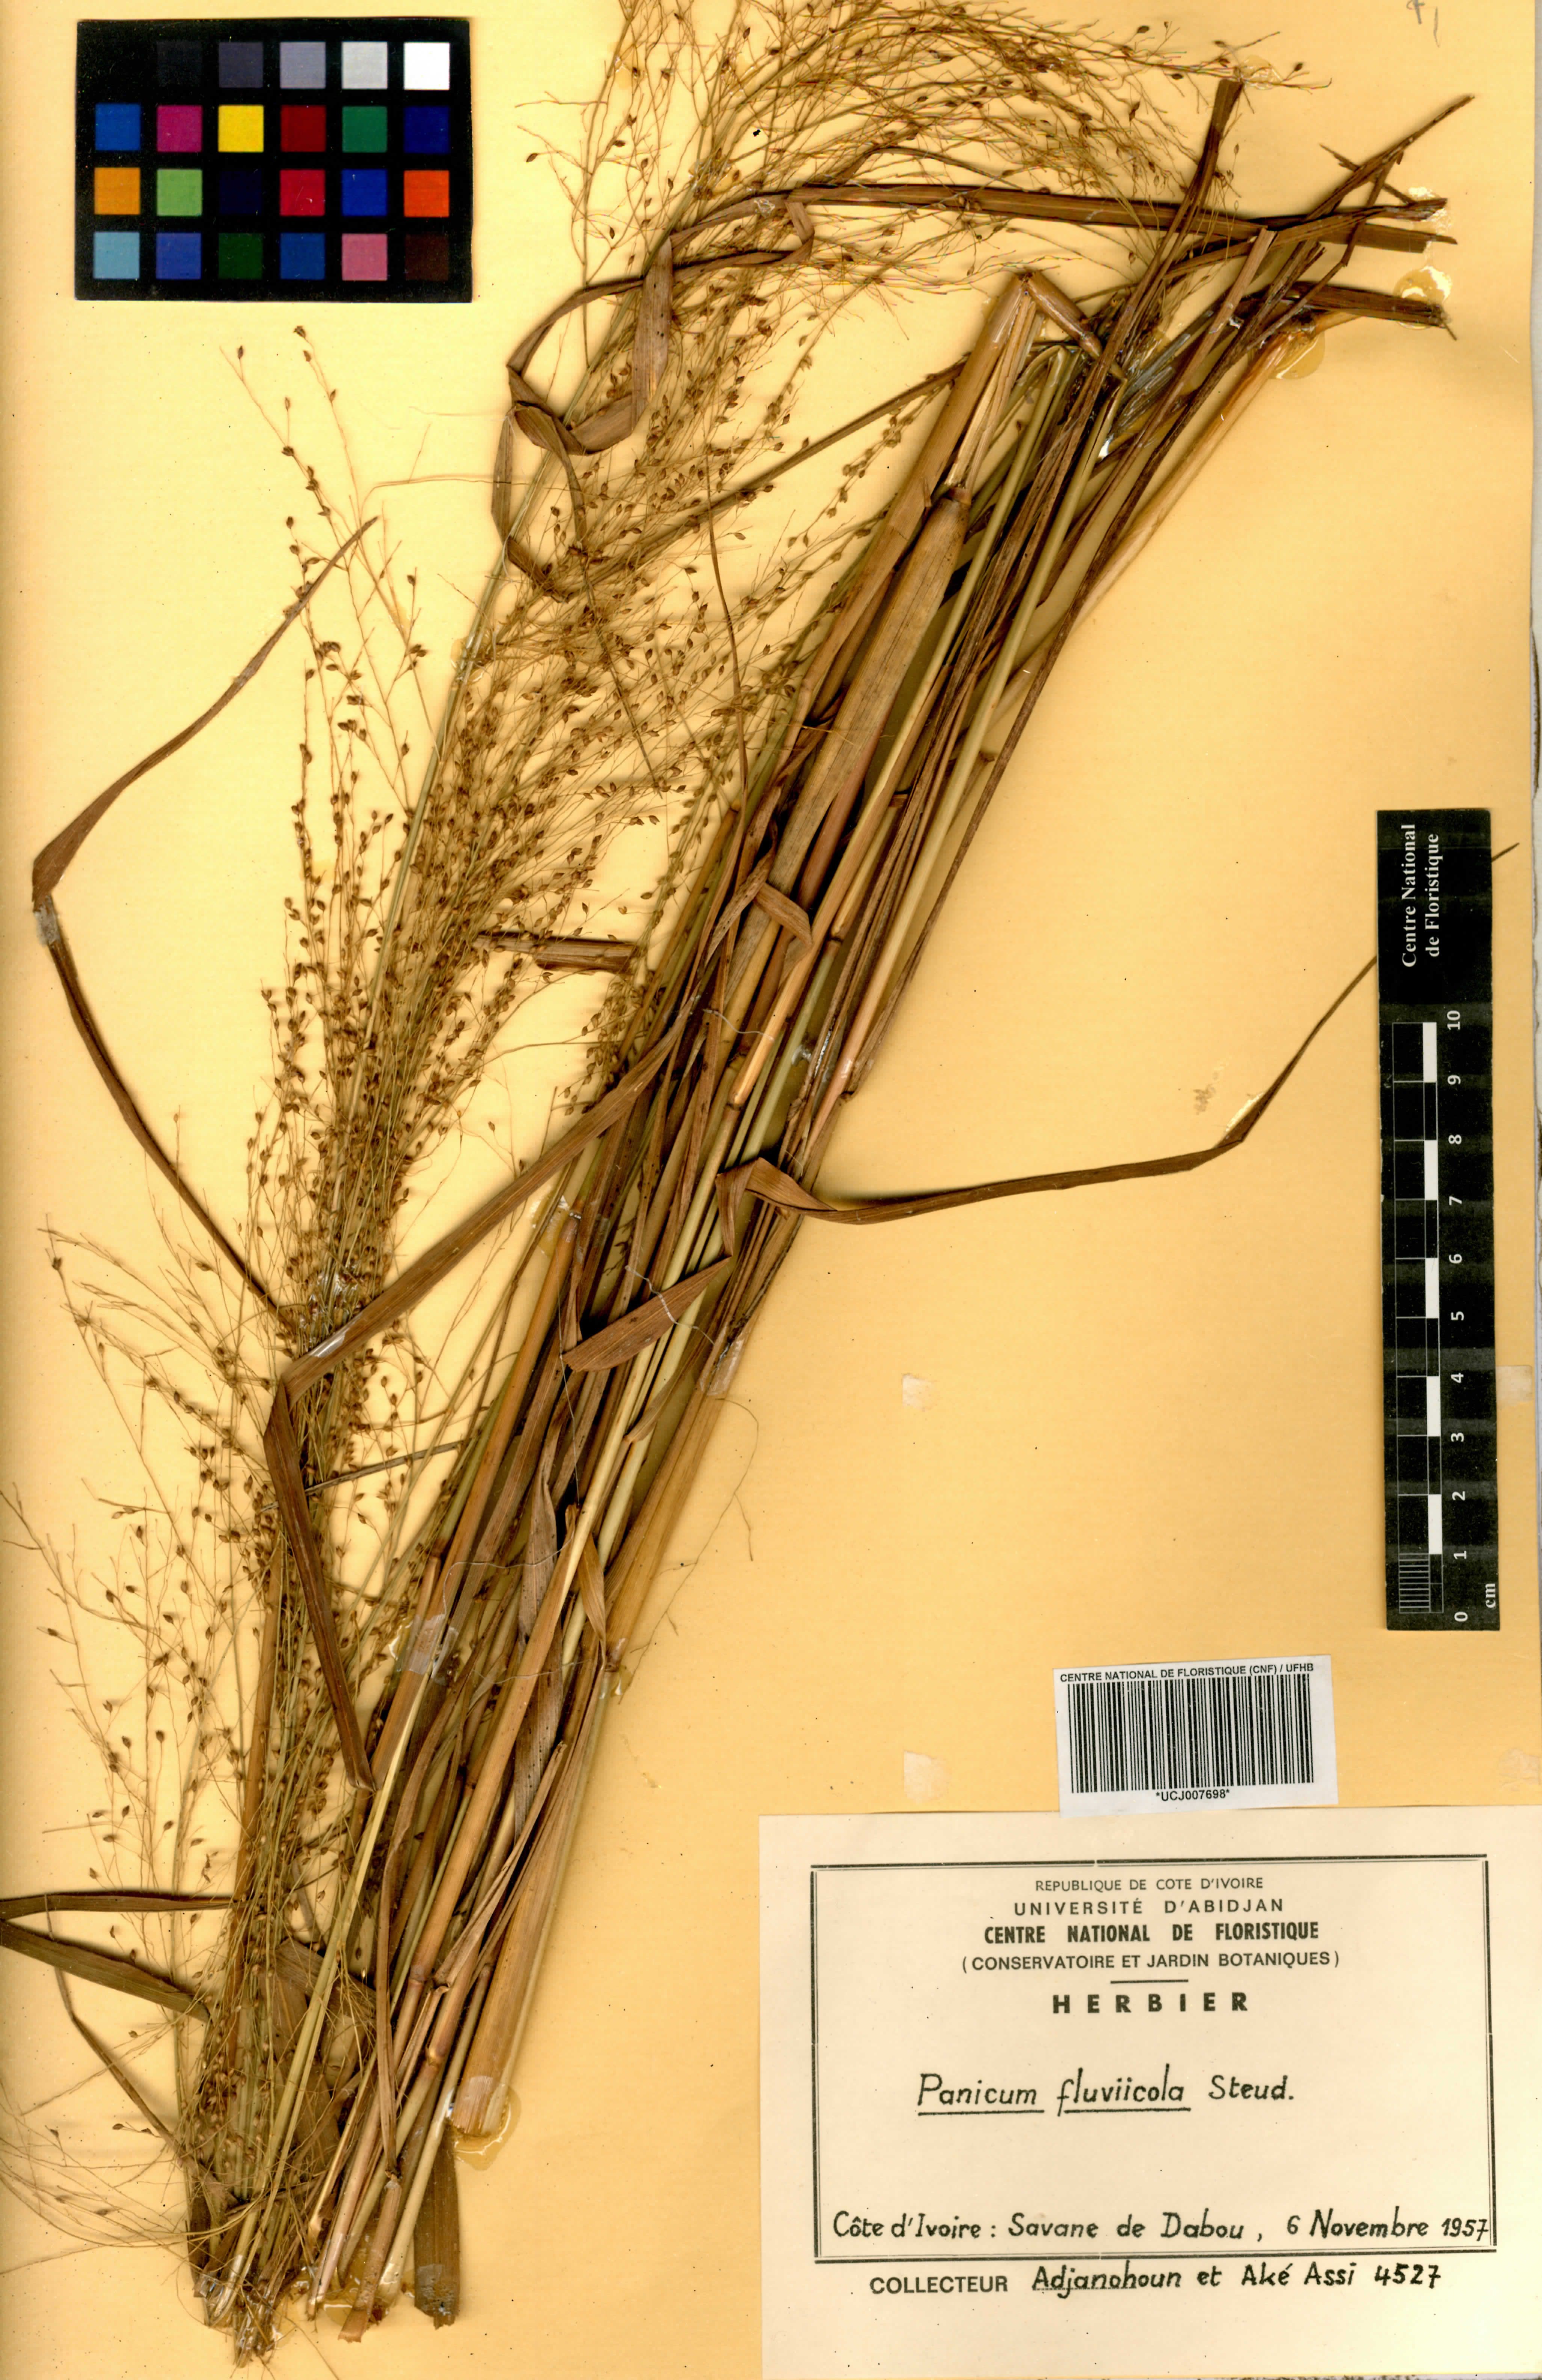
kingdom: Plantae
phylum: Tracheophyta
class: Liliopsida
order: Poales
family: Poaceae
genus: Panicum
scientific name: Panicum fluviicola
